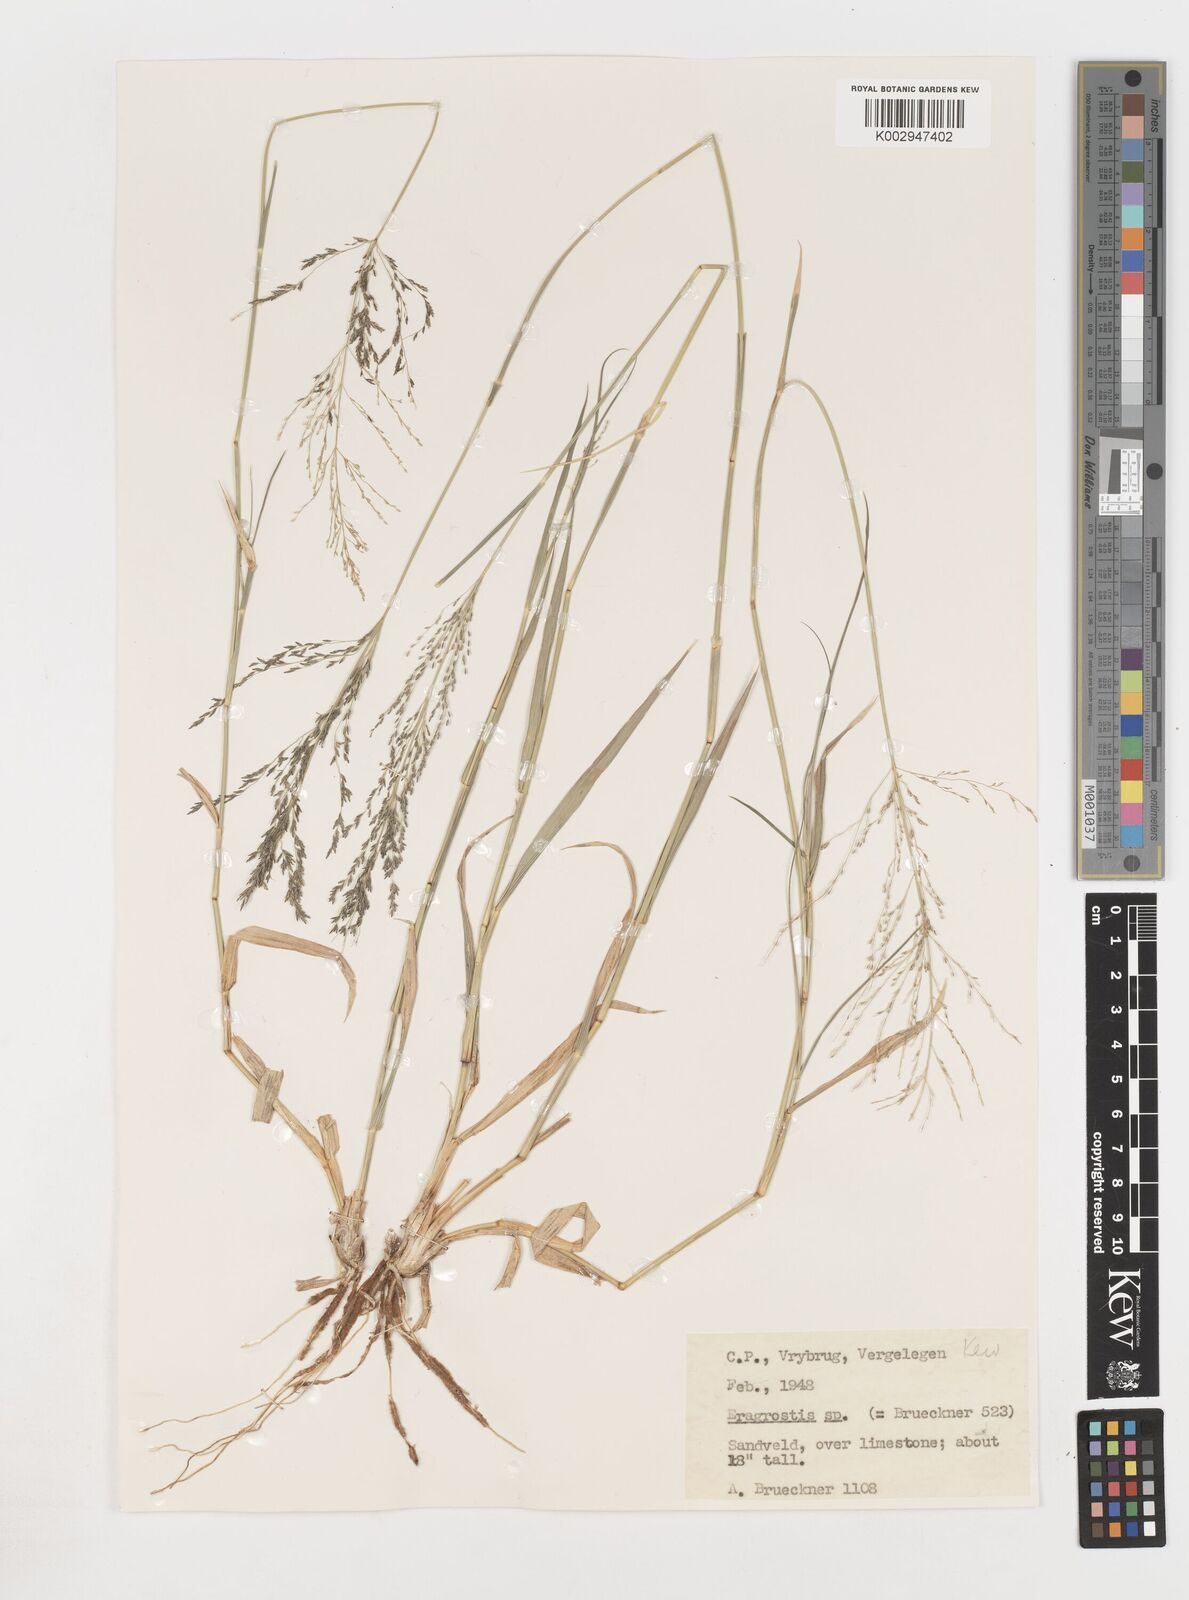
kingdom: Plantae
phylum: Tracheophyta
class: Liliopsida
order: Poales
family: Poaceae
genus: Eragrostis
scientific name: Eragrostis
